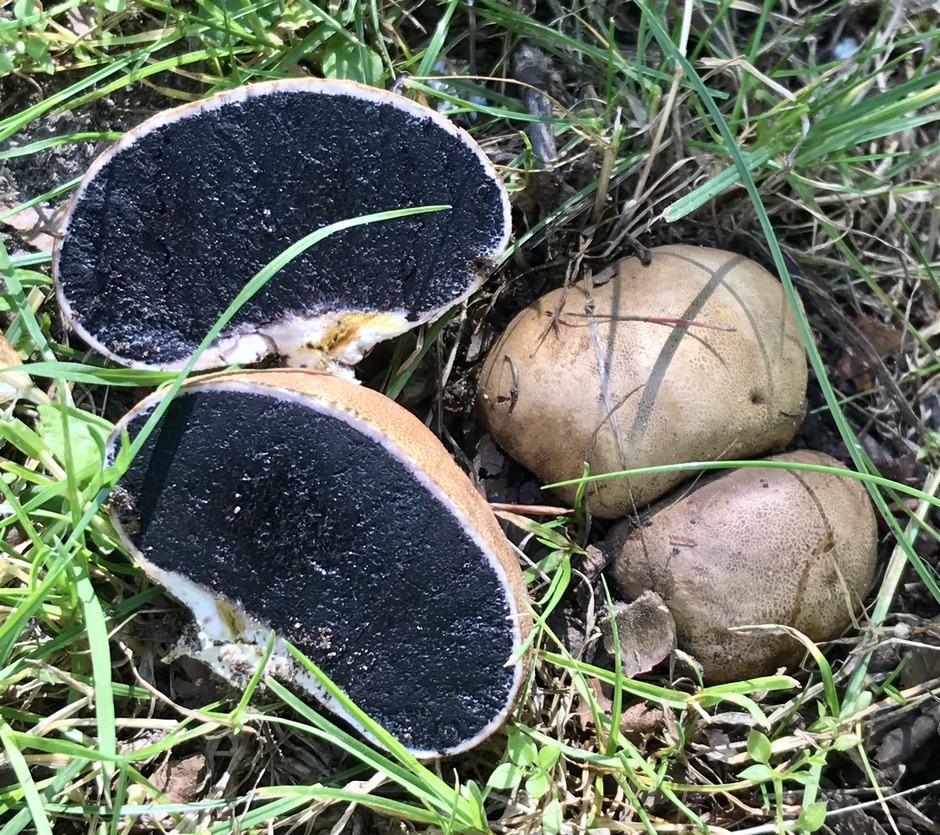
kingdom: Fungi
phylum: Basidiomycota
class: Agaricomycetes
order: Boletales
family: Sclerodermataceae
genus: Scleroderma
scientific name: Scleroderma
